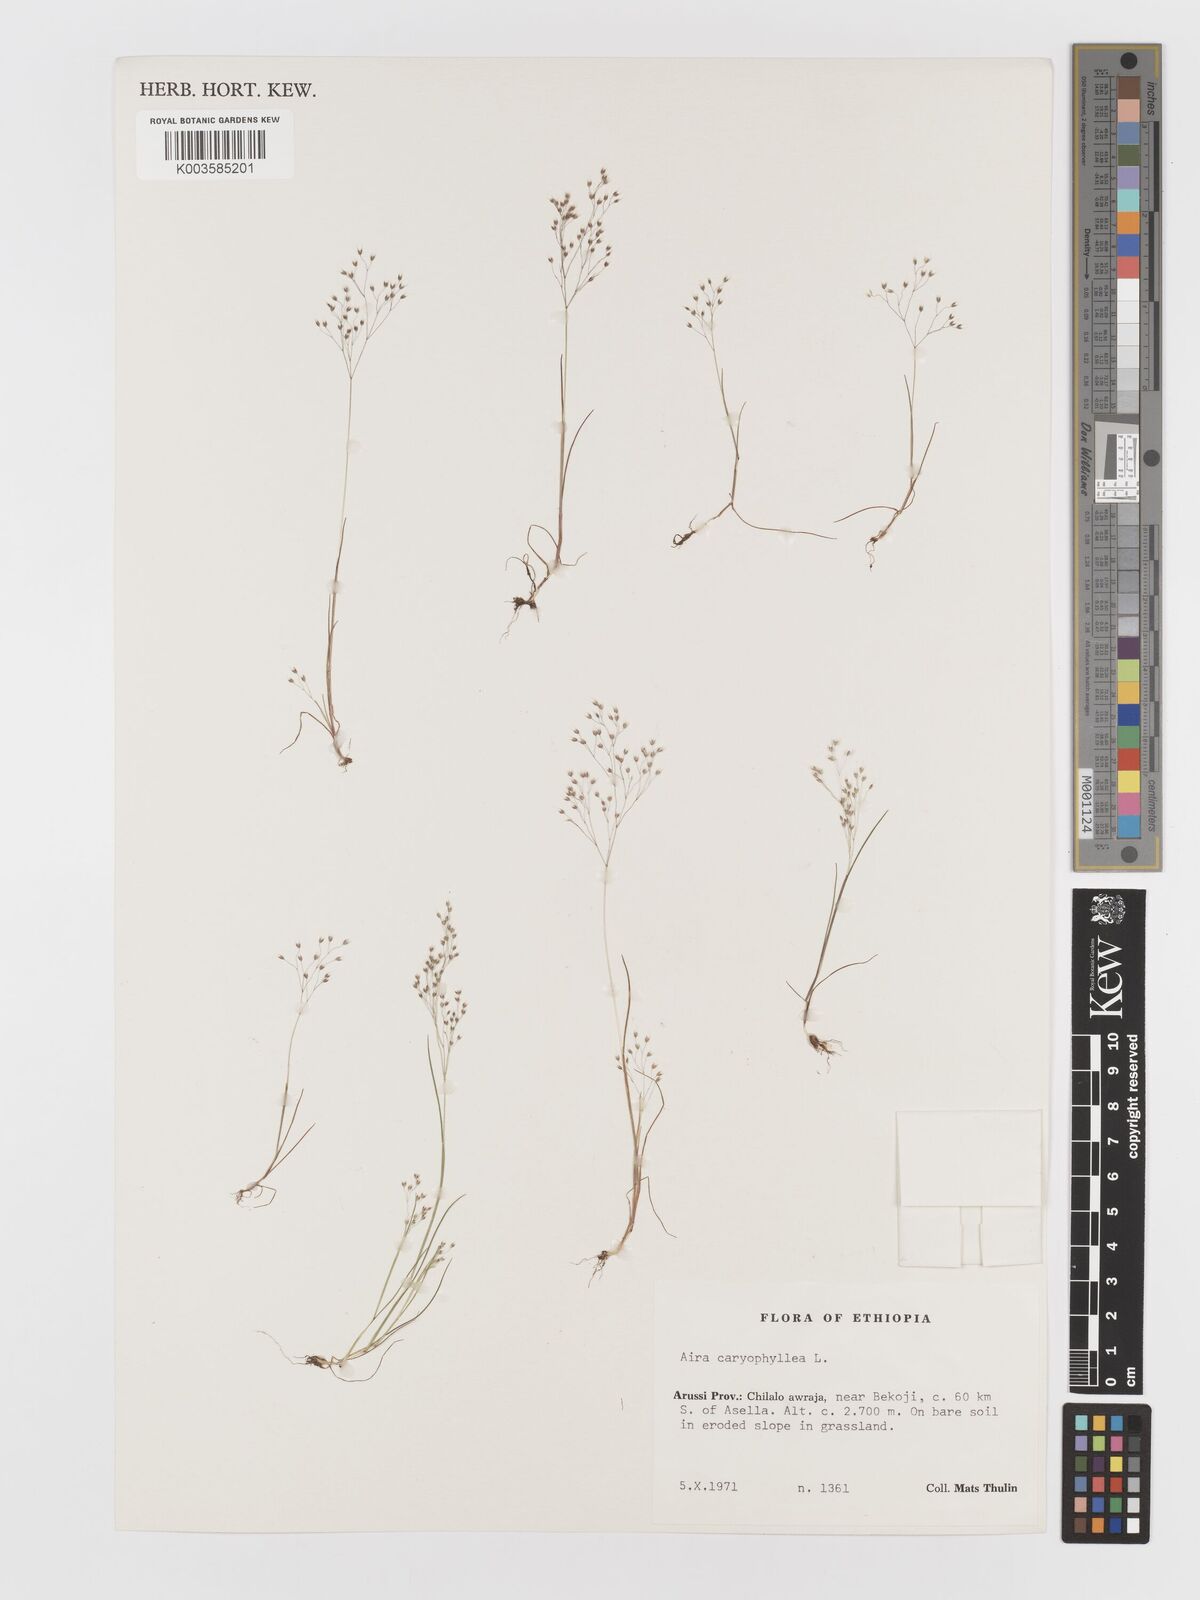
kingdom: Plantae
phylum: Tracheophyta
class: Liliopsida
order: Poales
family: Poaceae
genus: Aira
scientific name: Aira caryophyllea
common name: Silver hairgrass
